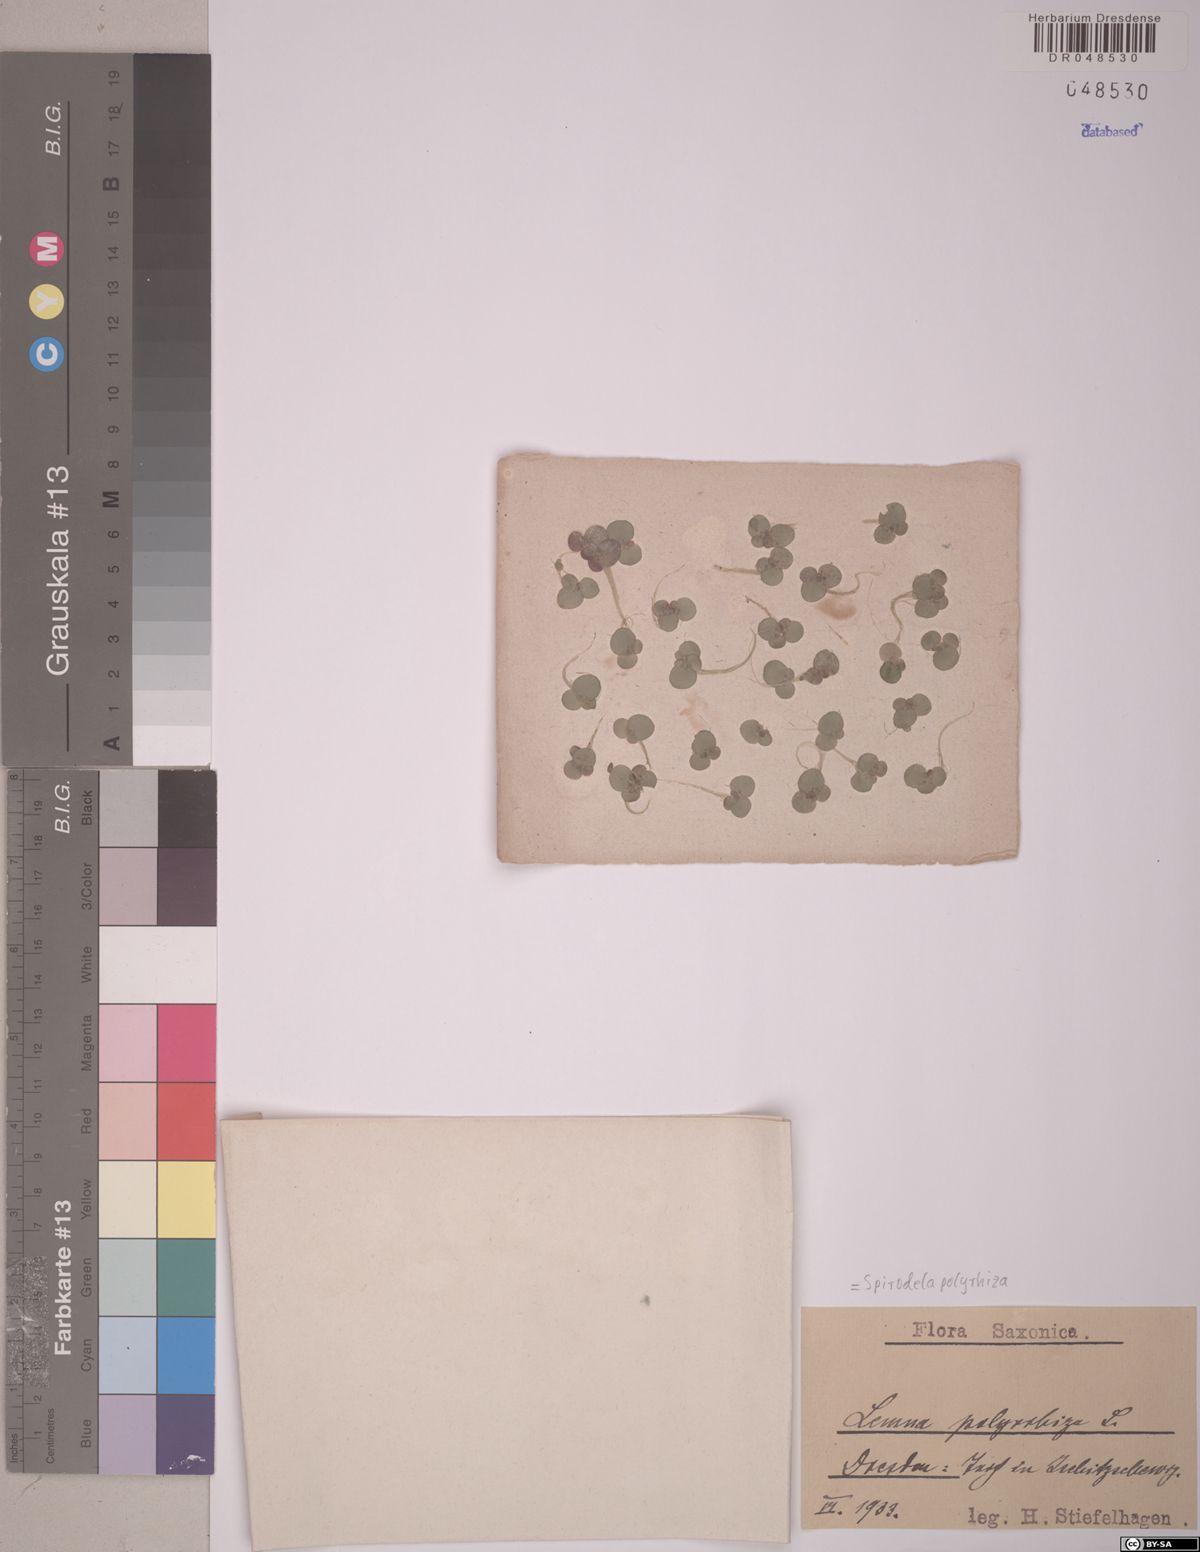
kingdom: Plantae
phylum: Tracheophyta
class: Liliopsida
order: Alismatales
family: Araceae
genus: Spirodela
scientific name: Spirodela polyrhiza
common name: Great duckweed
